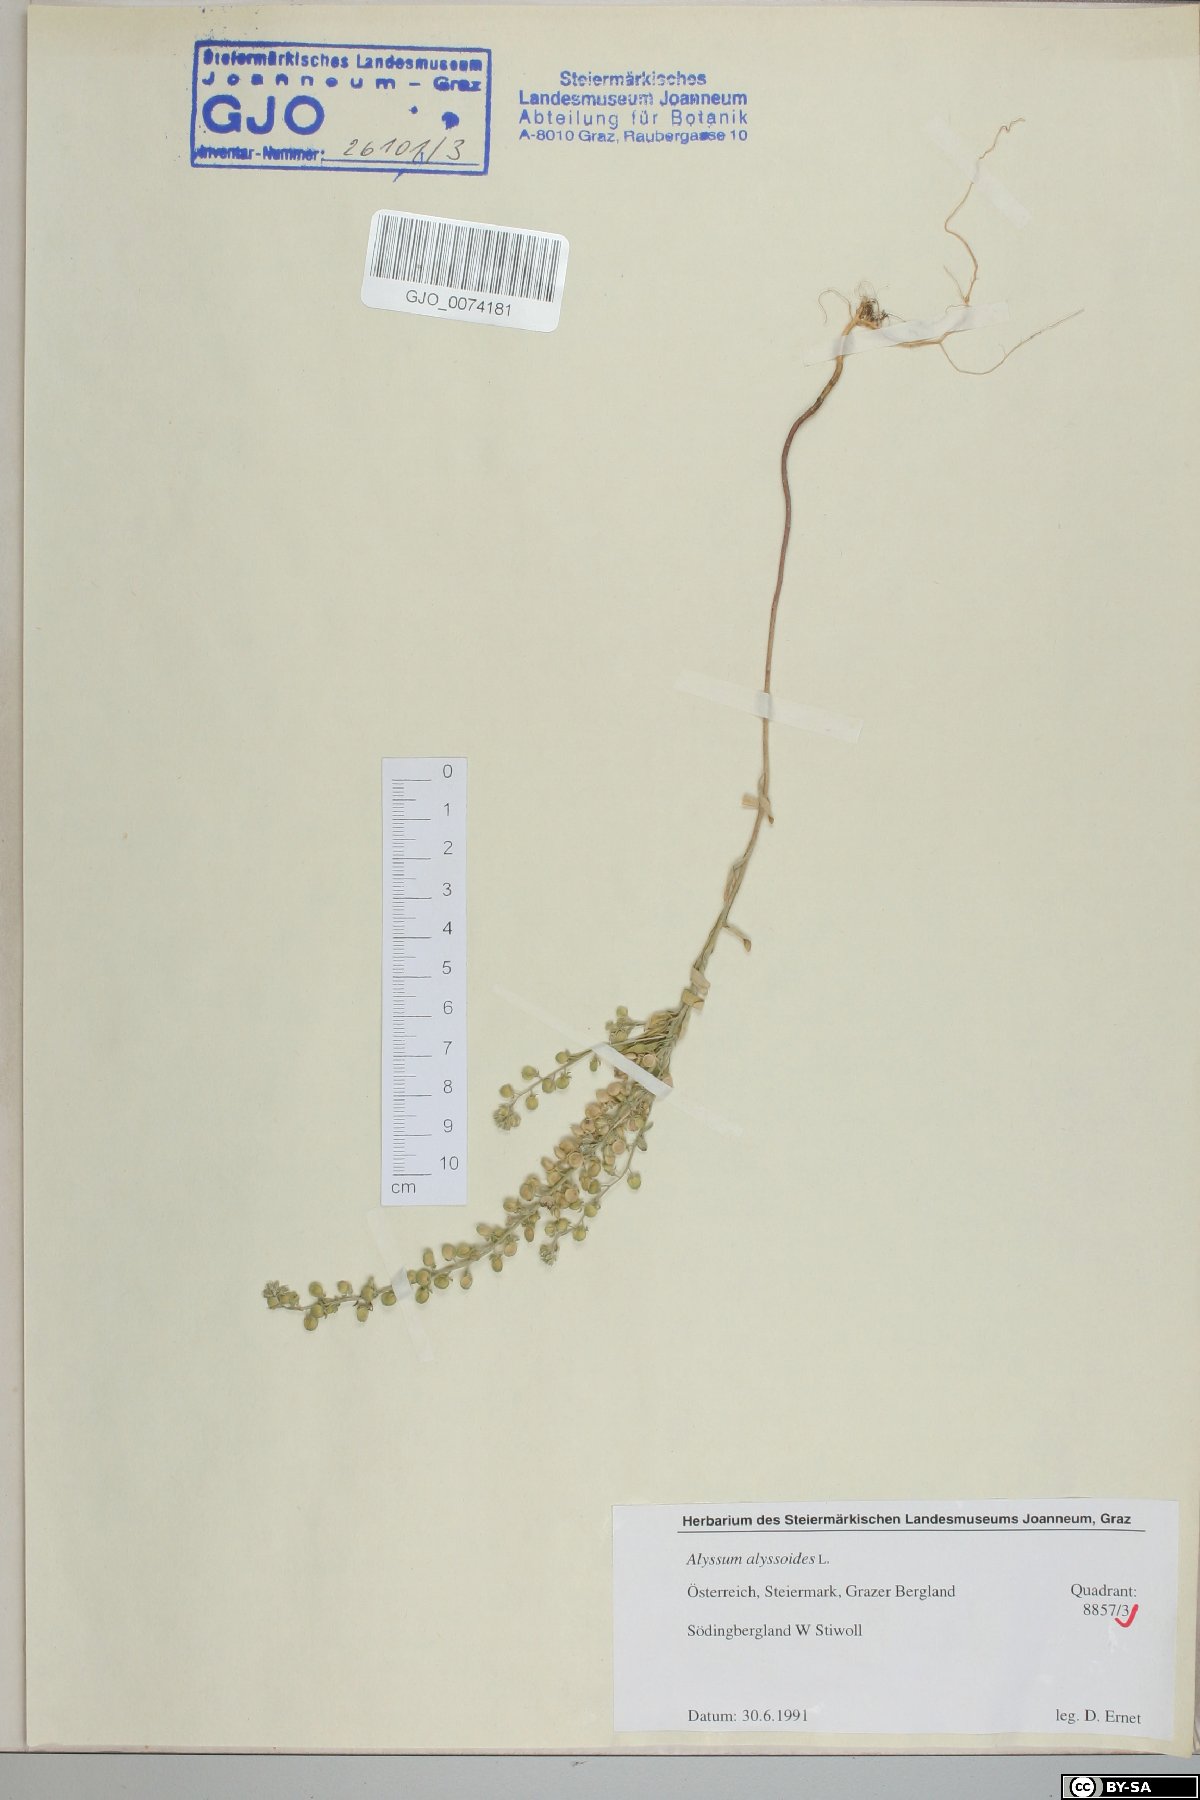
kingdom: Plantae
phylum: Tracheophyta
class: Magnoliopsida
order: Brassicales
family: Brassicaceae
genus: Alyssum
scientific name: Alyssum alyssoides
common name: Small alison
